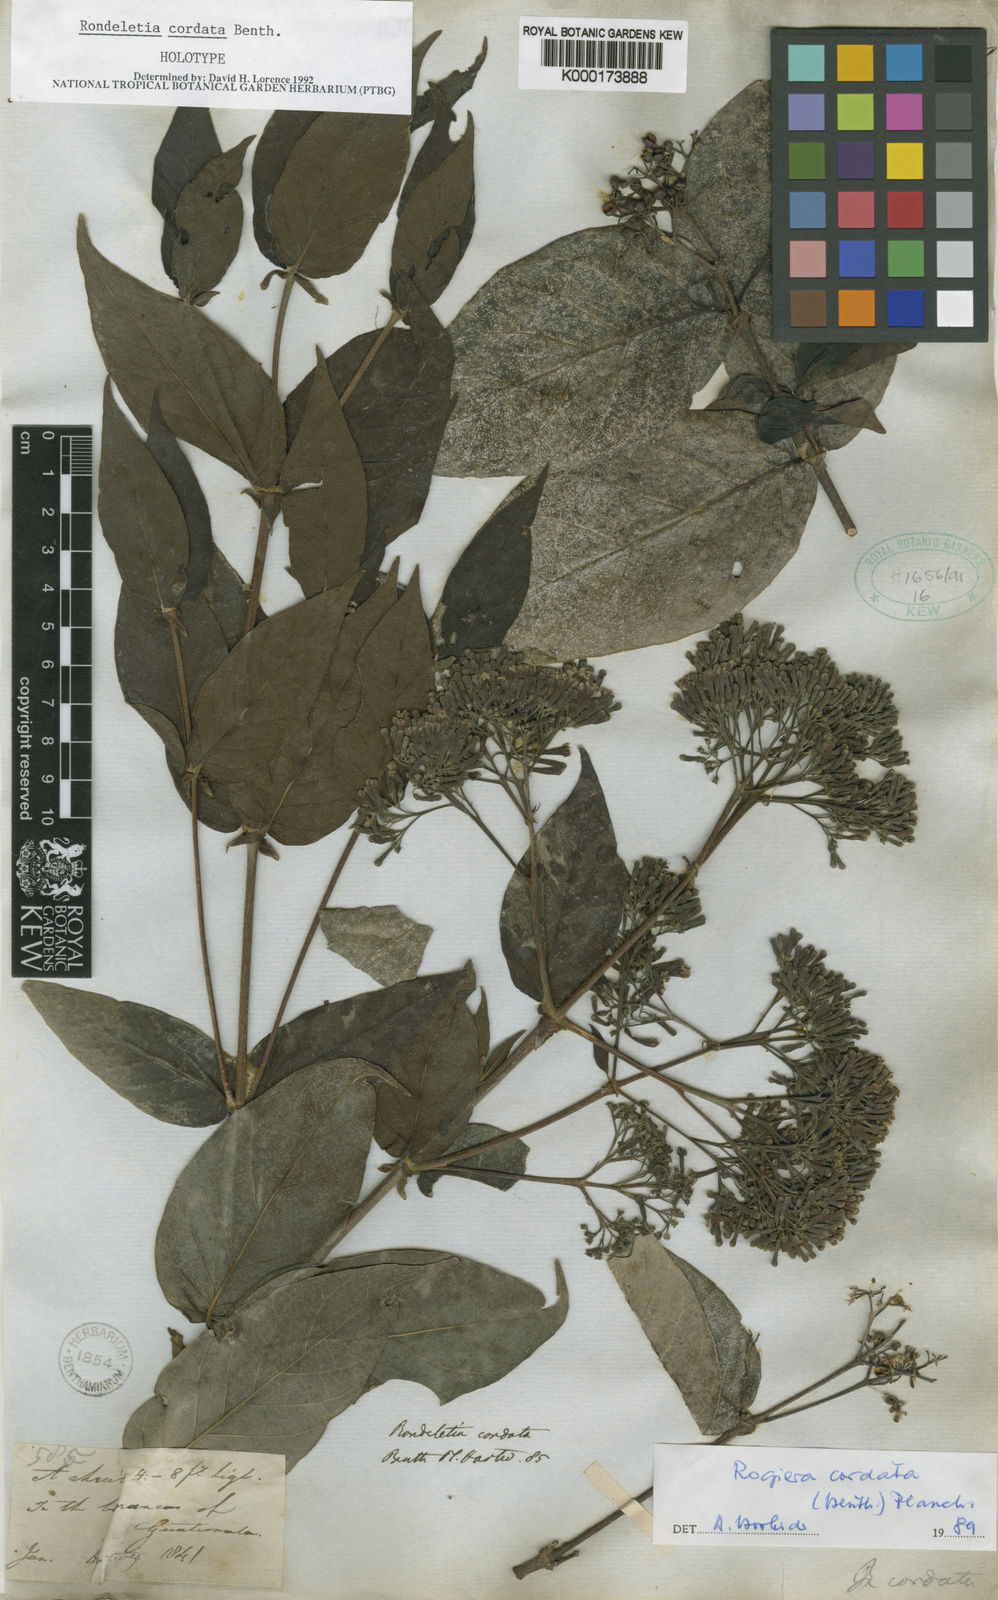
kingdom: Plantae
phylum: Tracheophyta
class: Magnoliopsida
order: Gentianales
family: Rubiaceae
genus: Rogiera
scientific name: Rogiera cordata
